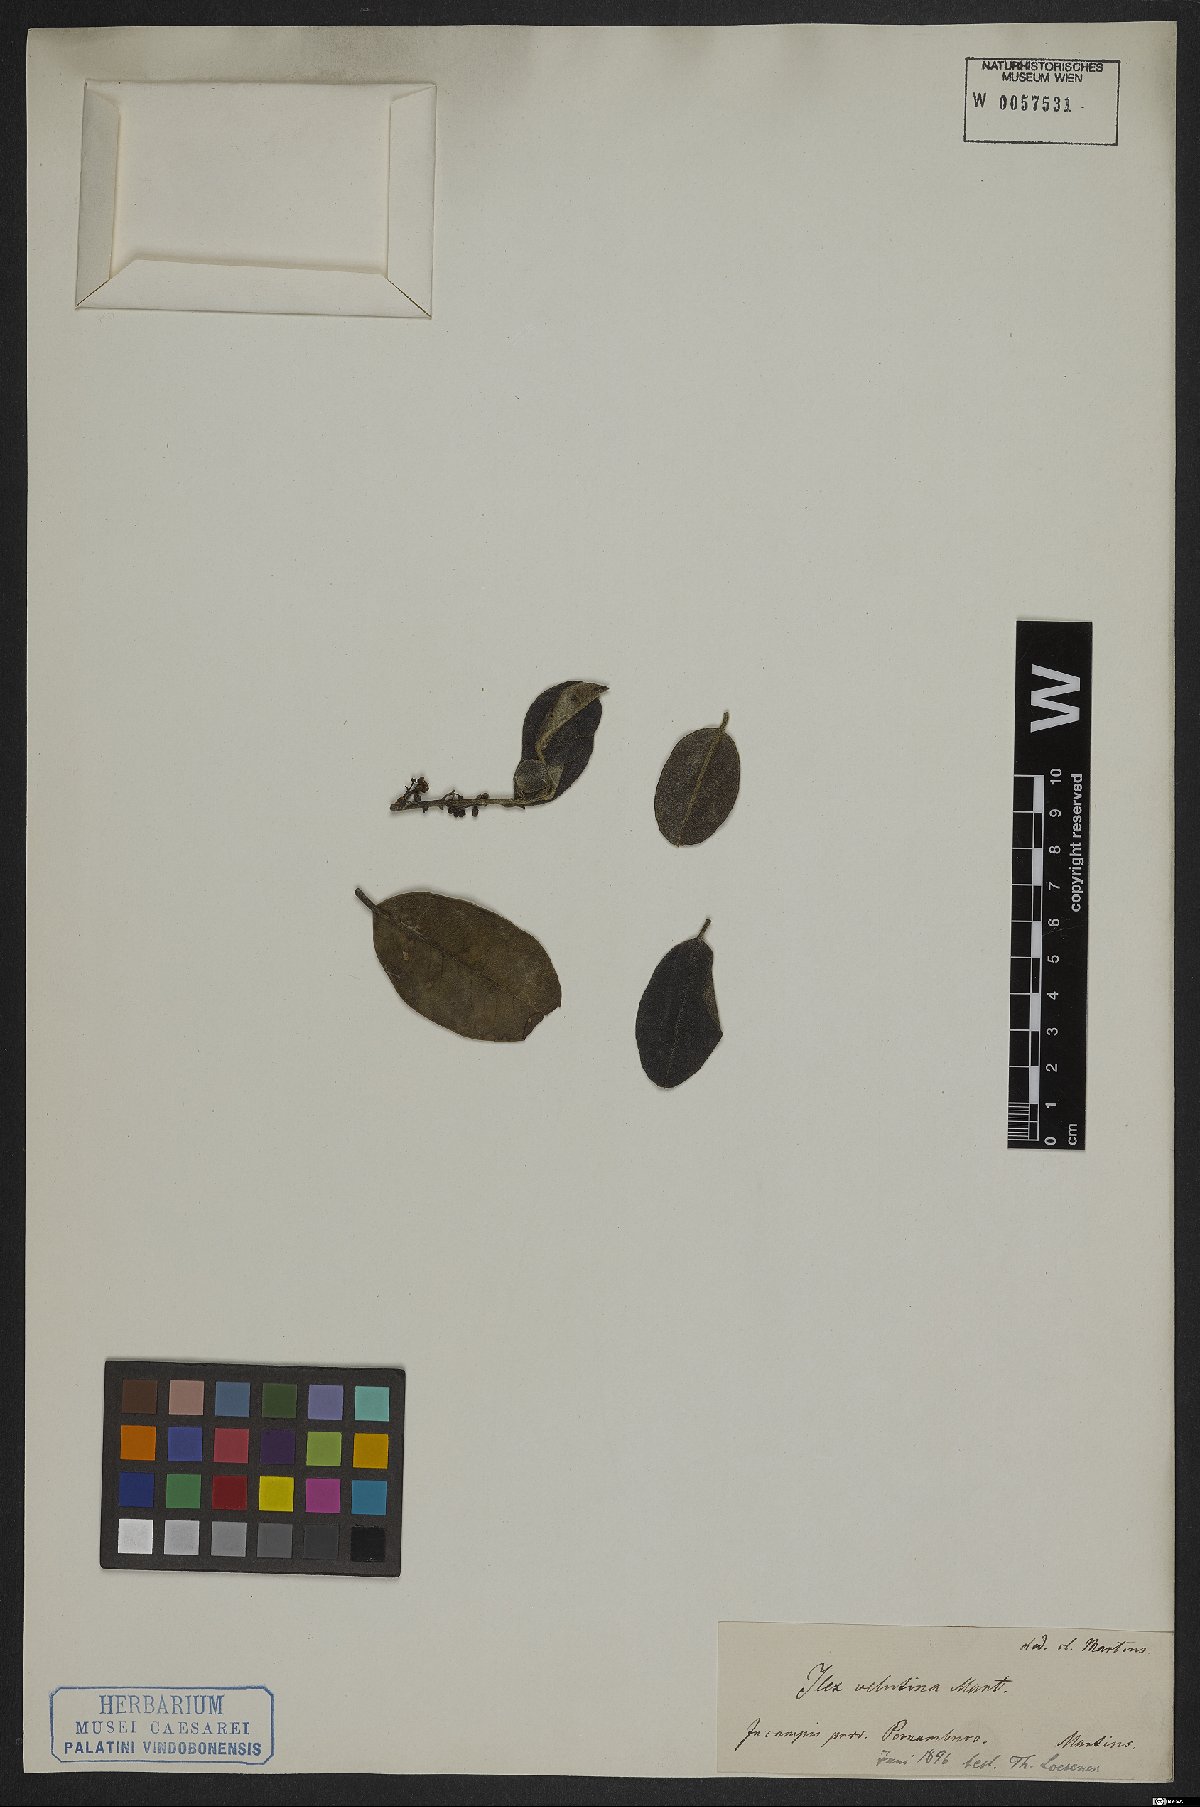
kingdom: Plantae
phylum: Tracheophyta
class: Magnoliopsida
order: Aquifoliales
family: Aquifoliaceae
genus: Ilex
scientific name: Ilex velutina
